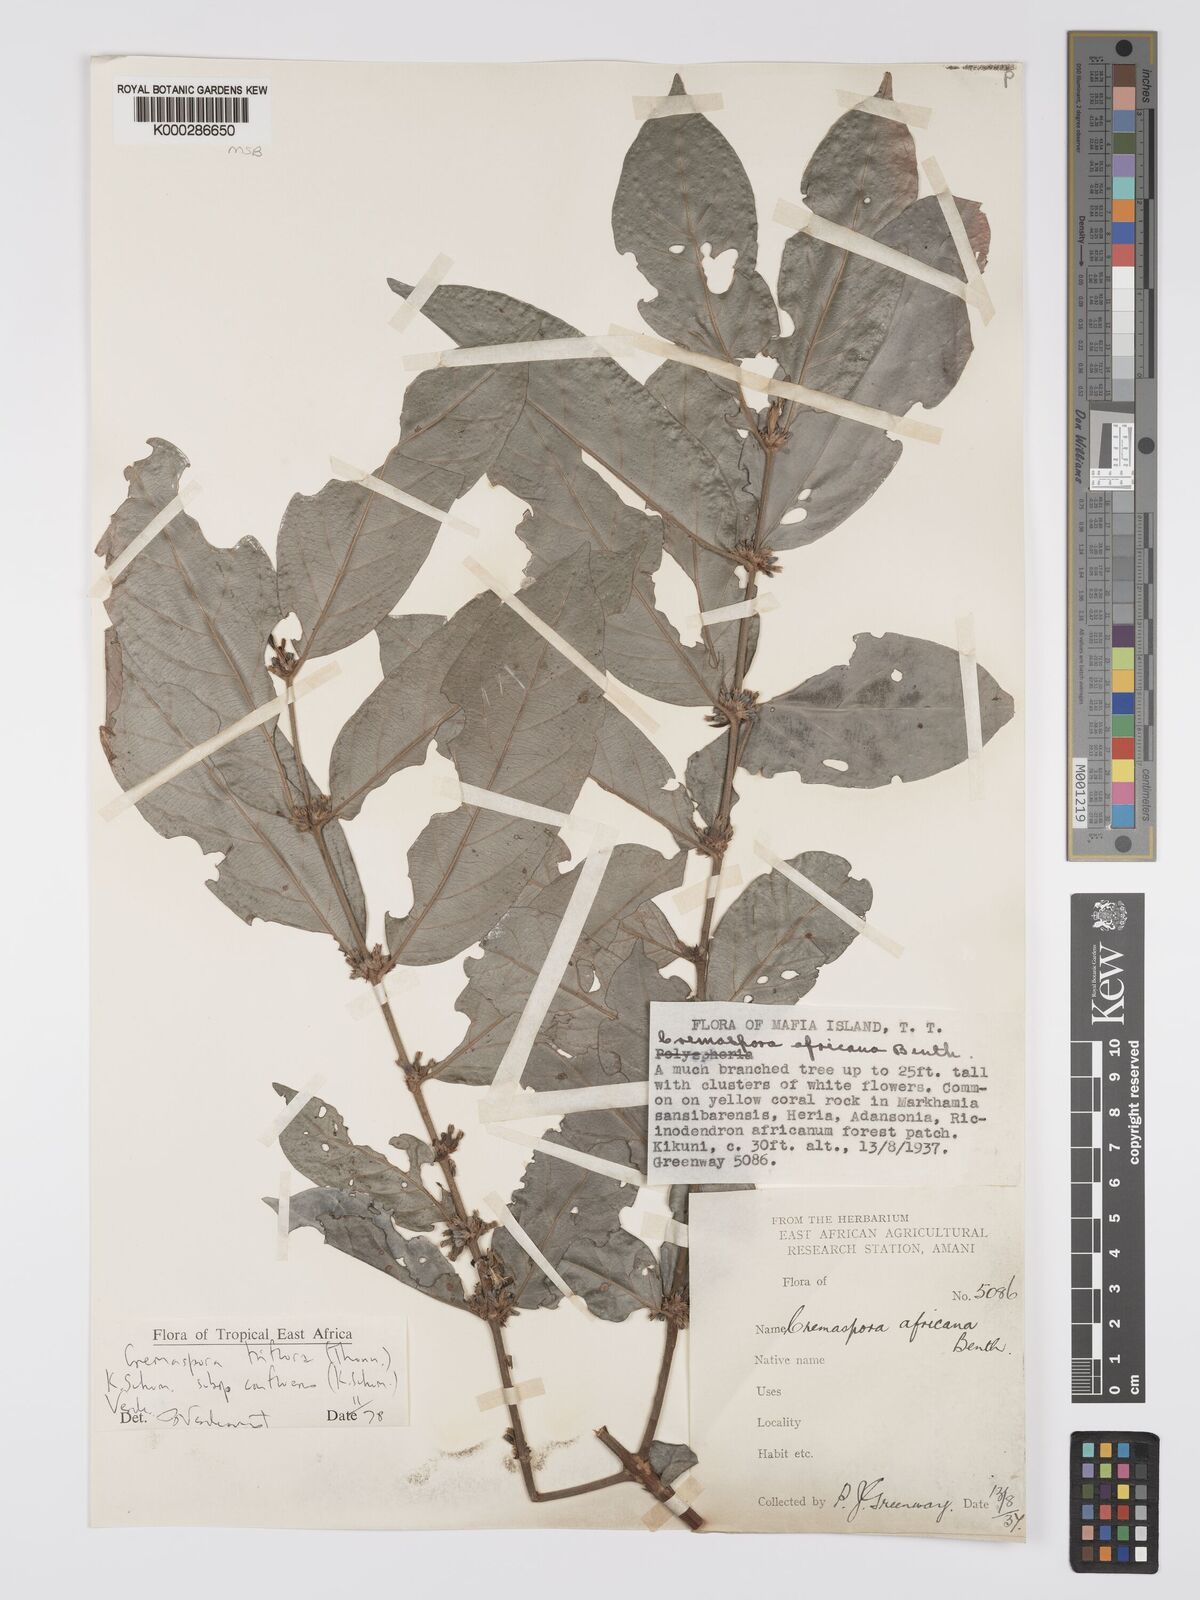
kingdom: Plantae
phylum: Tracheophyta
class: Magnoliopsida
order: Gentianales
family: Rubiaceae
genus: Cremaspora
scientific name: Cremaspora triflora
